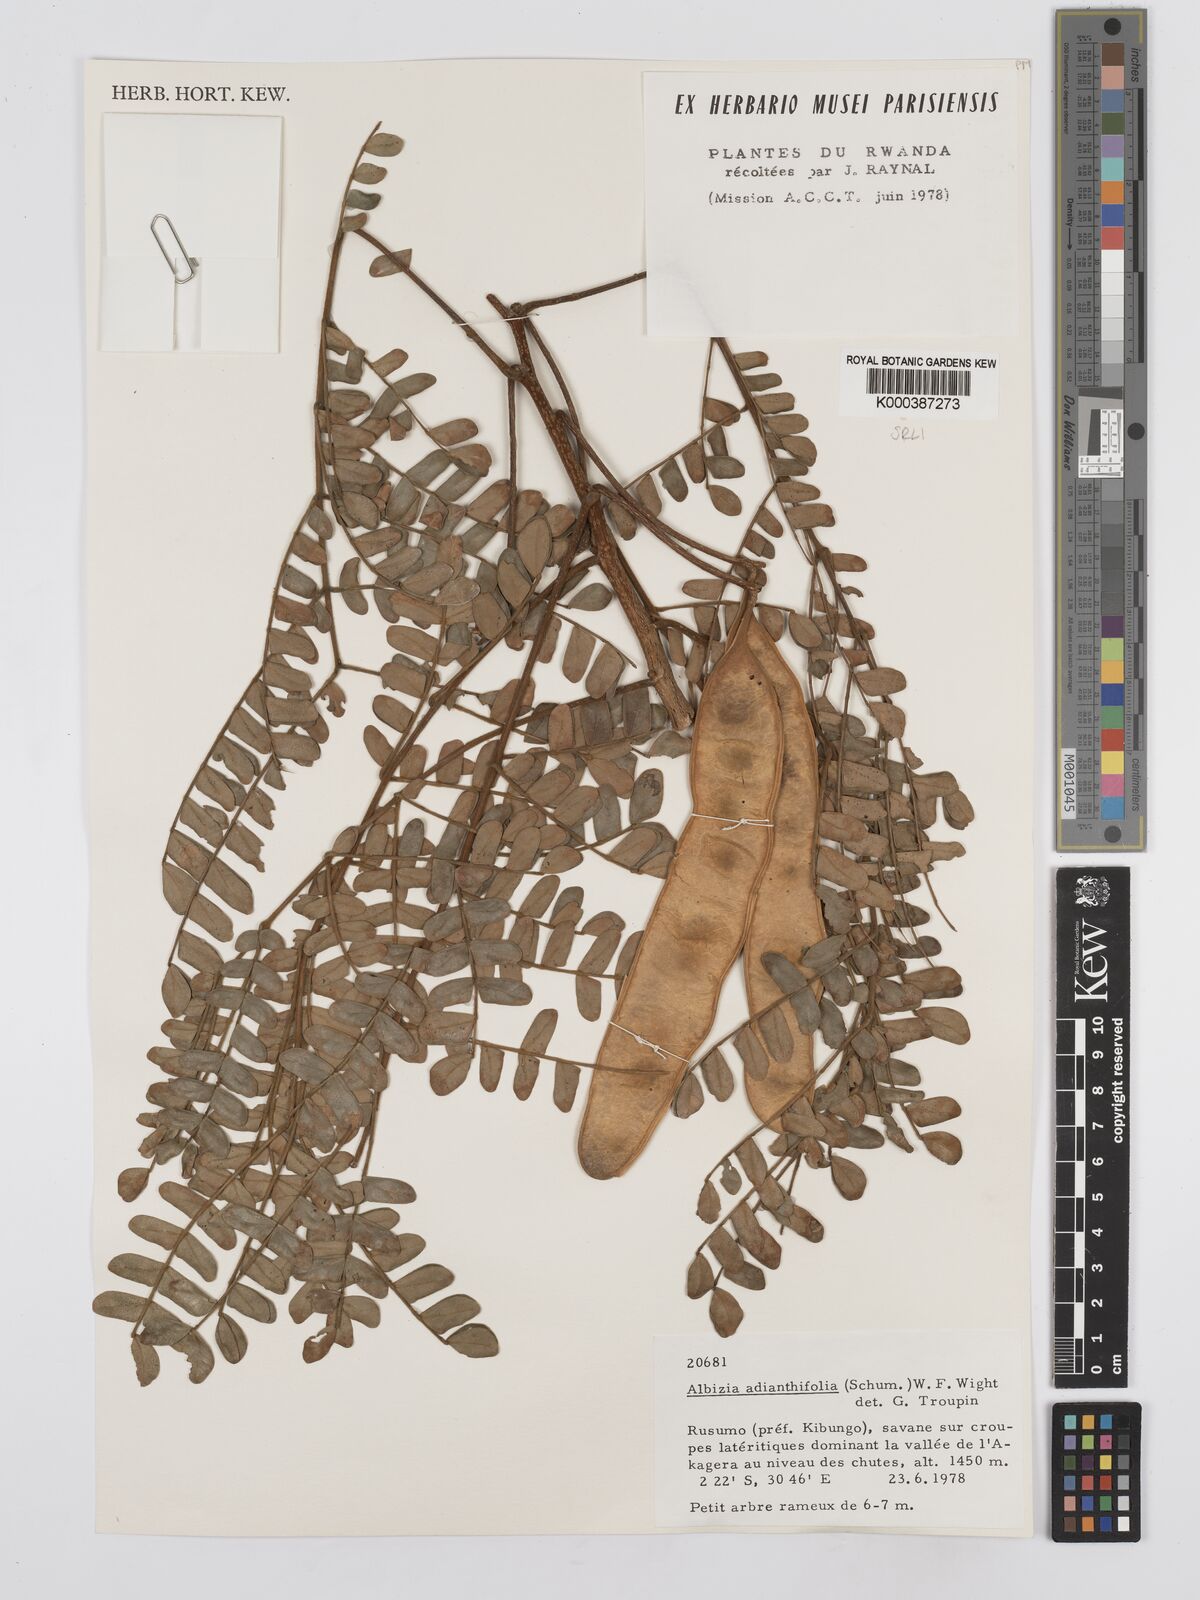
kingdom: Plantae
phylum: Tracheophyta
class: Magnoliopsida
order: Fabales
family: Fabaceae
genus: Albizia
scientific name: Albizia adianthifolia
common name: West african albizia
